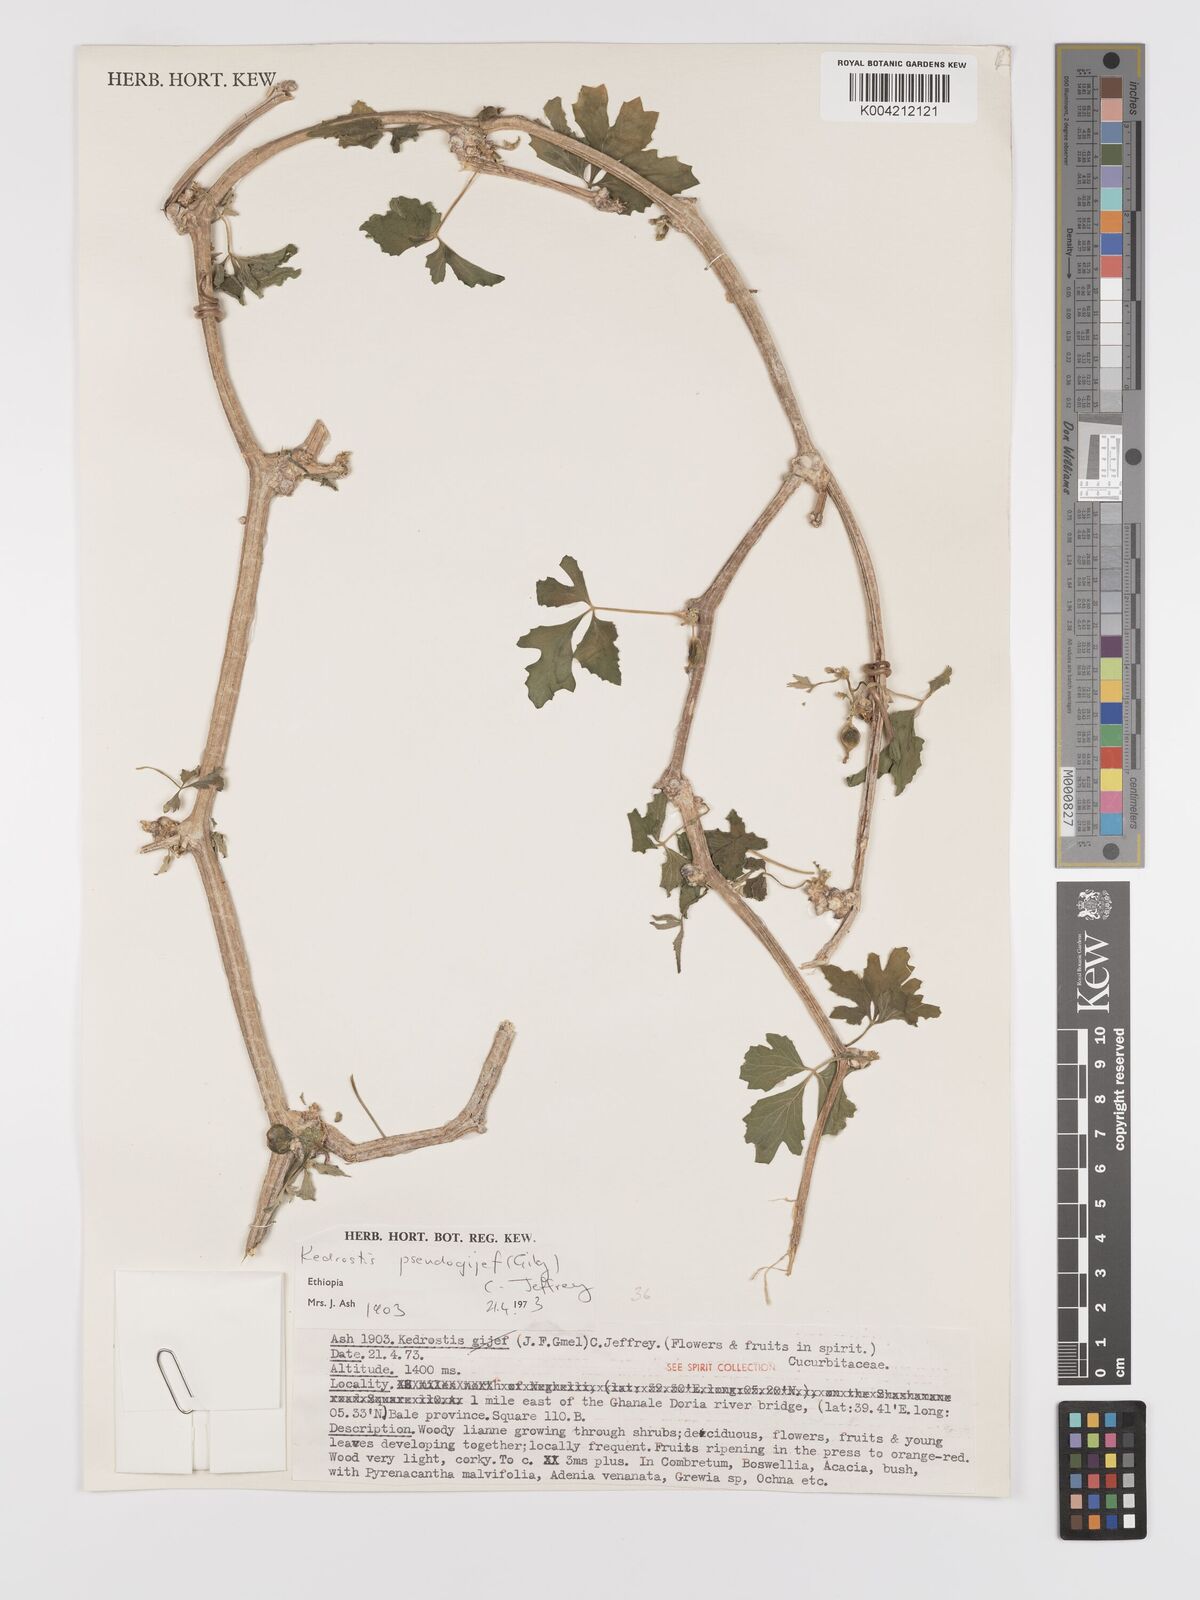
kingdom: Plantae
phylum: Tracheophyta
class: Magnoliopsida
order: Cucurbitales
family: Cucurbitaceae
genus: Kedrostis
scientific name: Kedrostis pseudogijef
